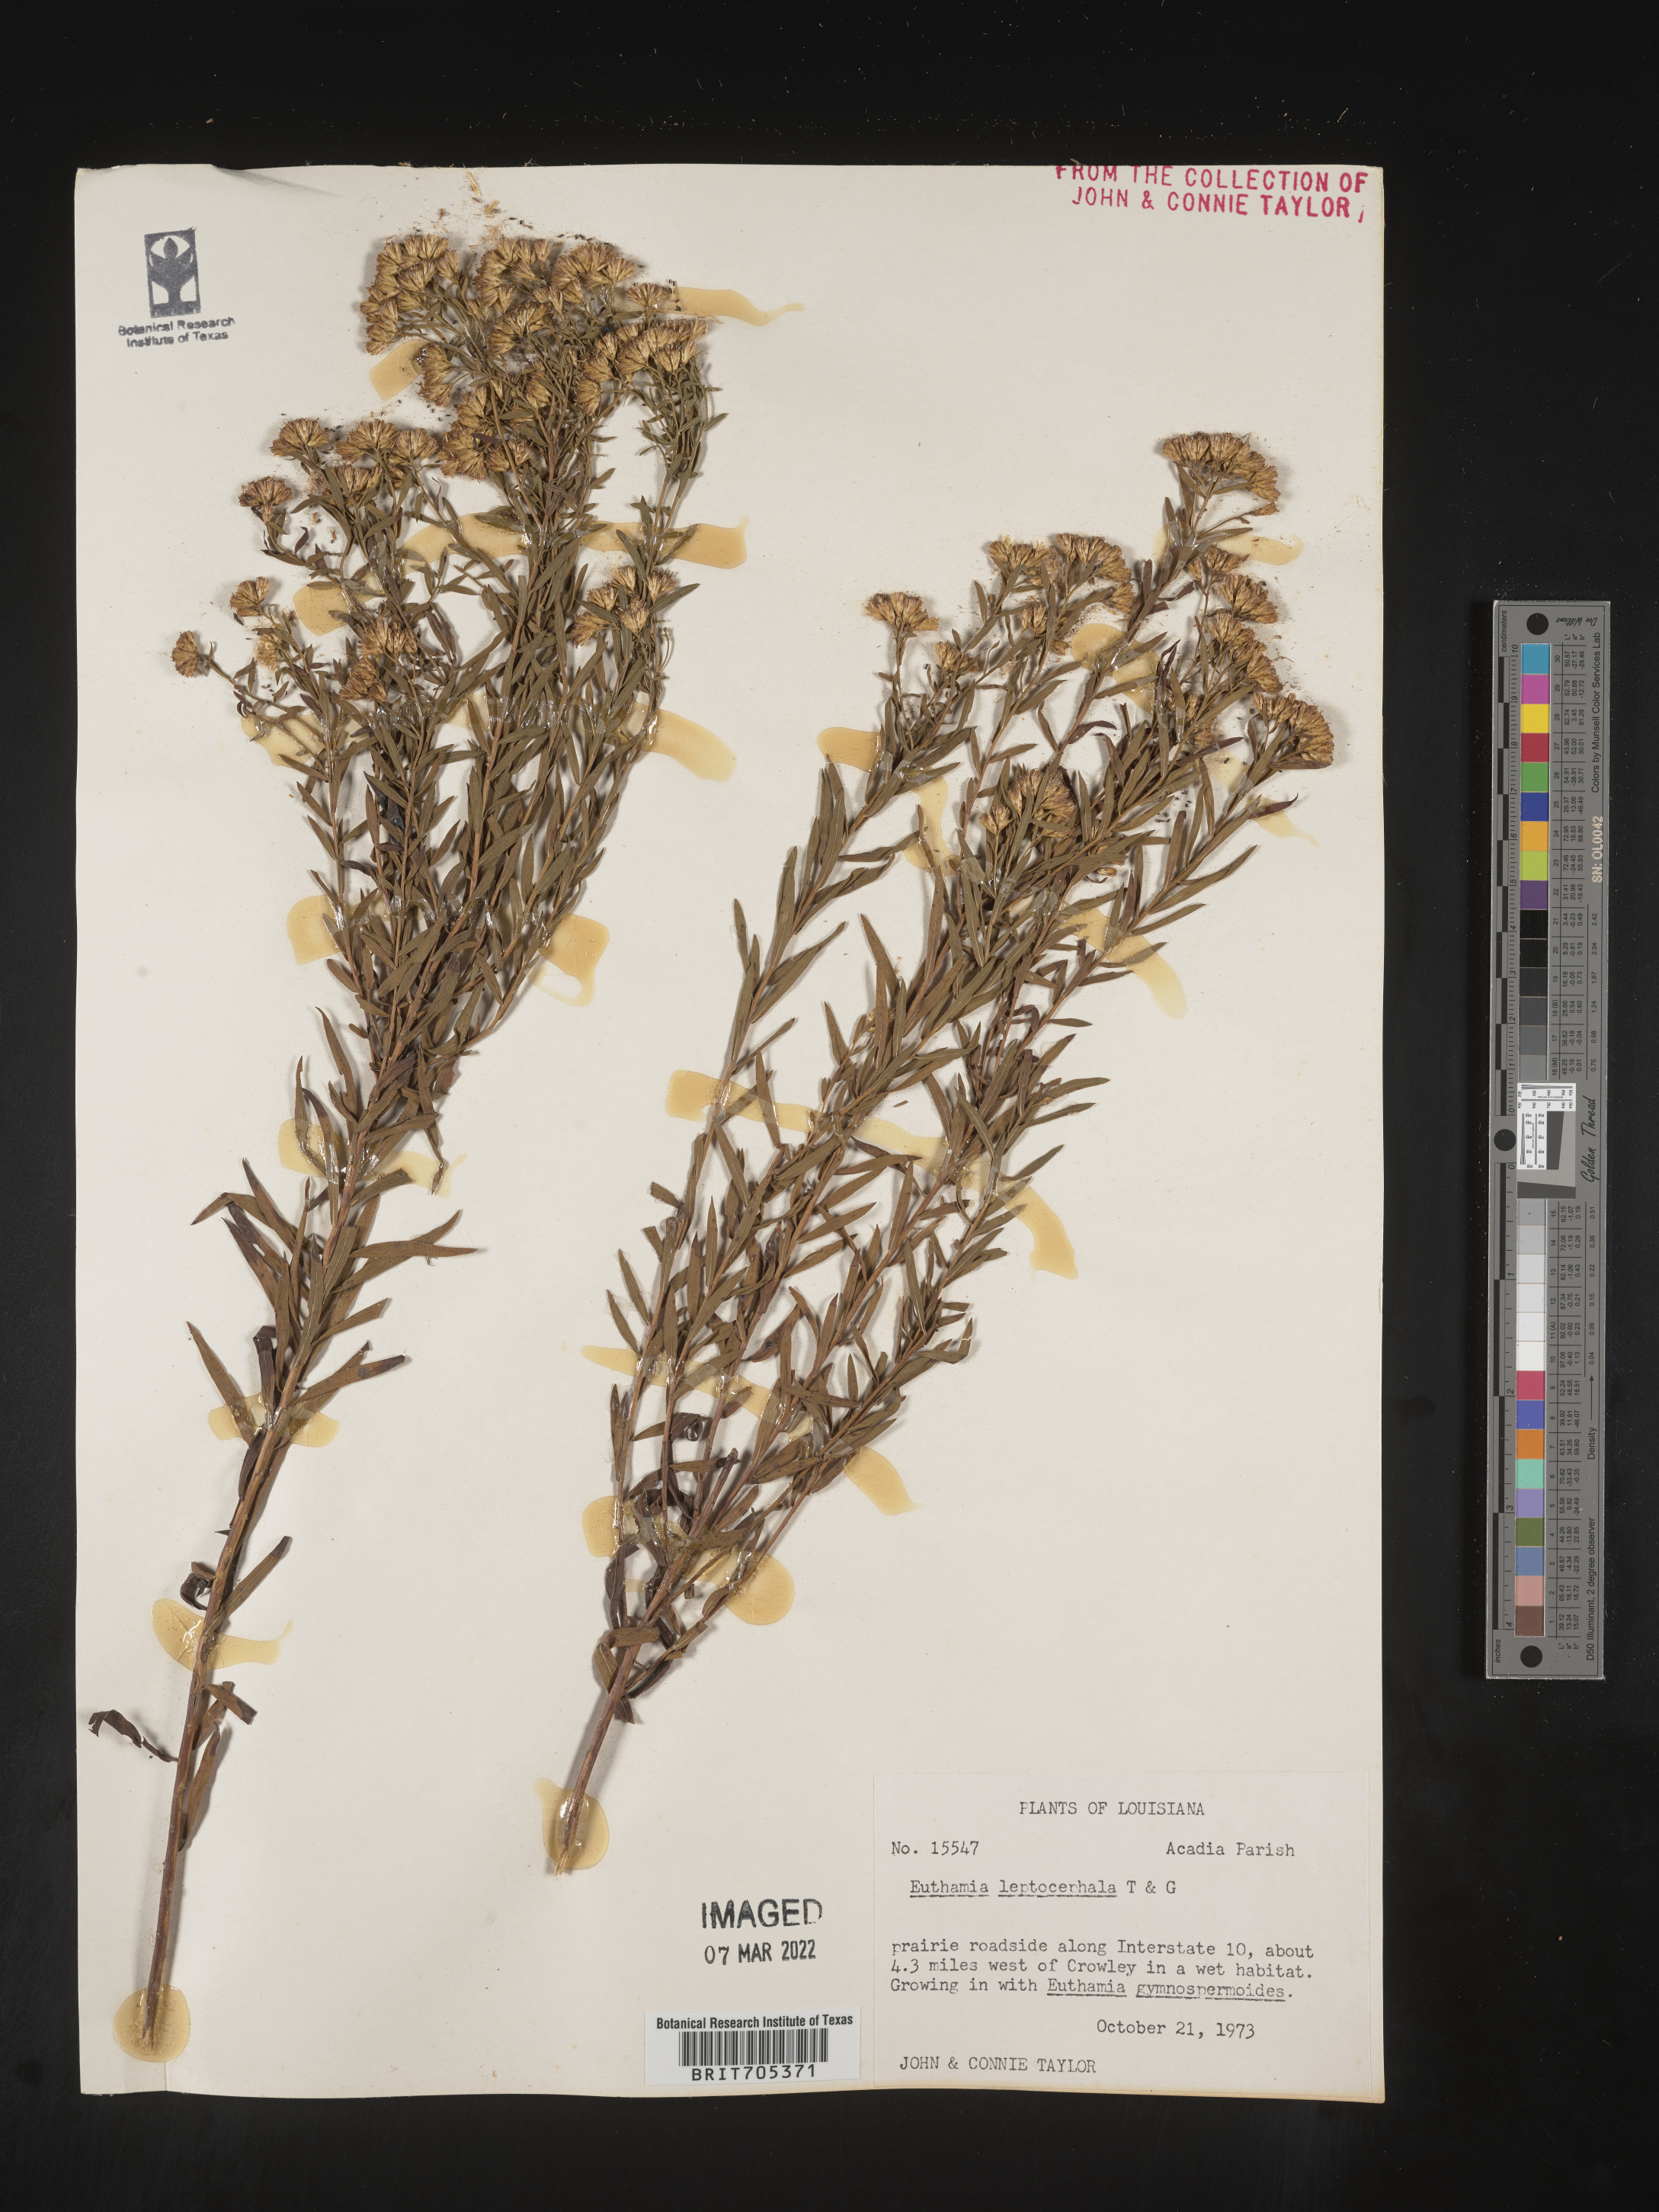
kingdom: Plantae
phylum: Tracheophyta
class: Magnoliopsida
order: Asterales
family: Asteraceae
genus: Euthamia
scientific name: Euthamia leptocephala
